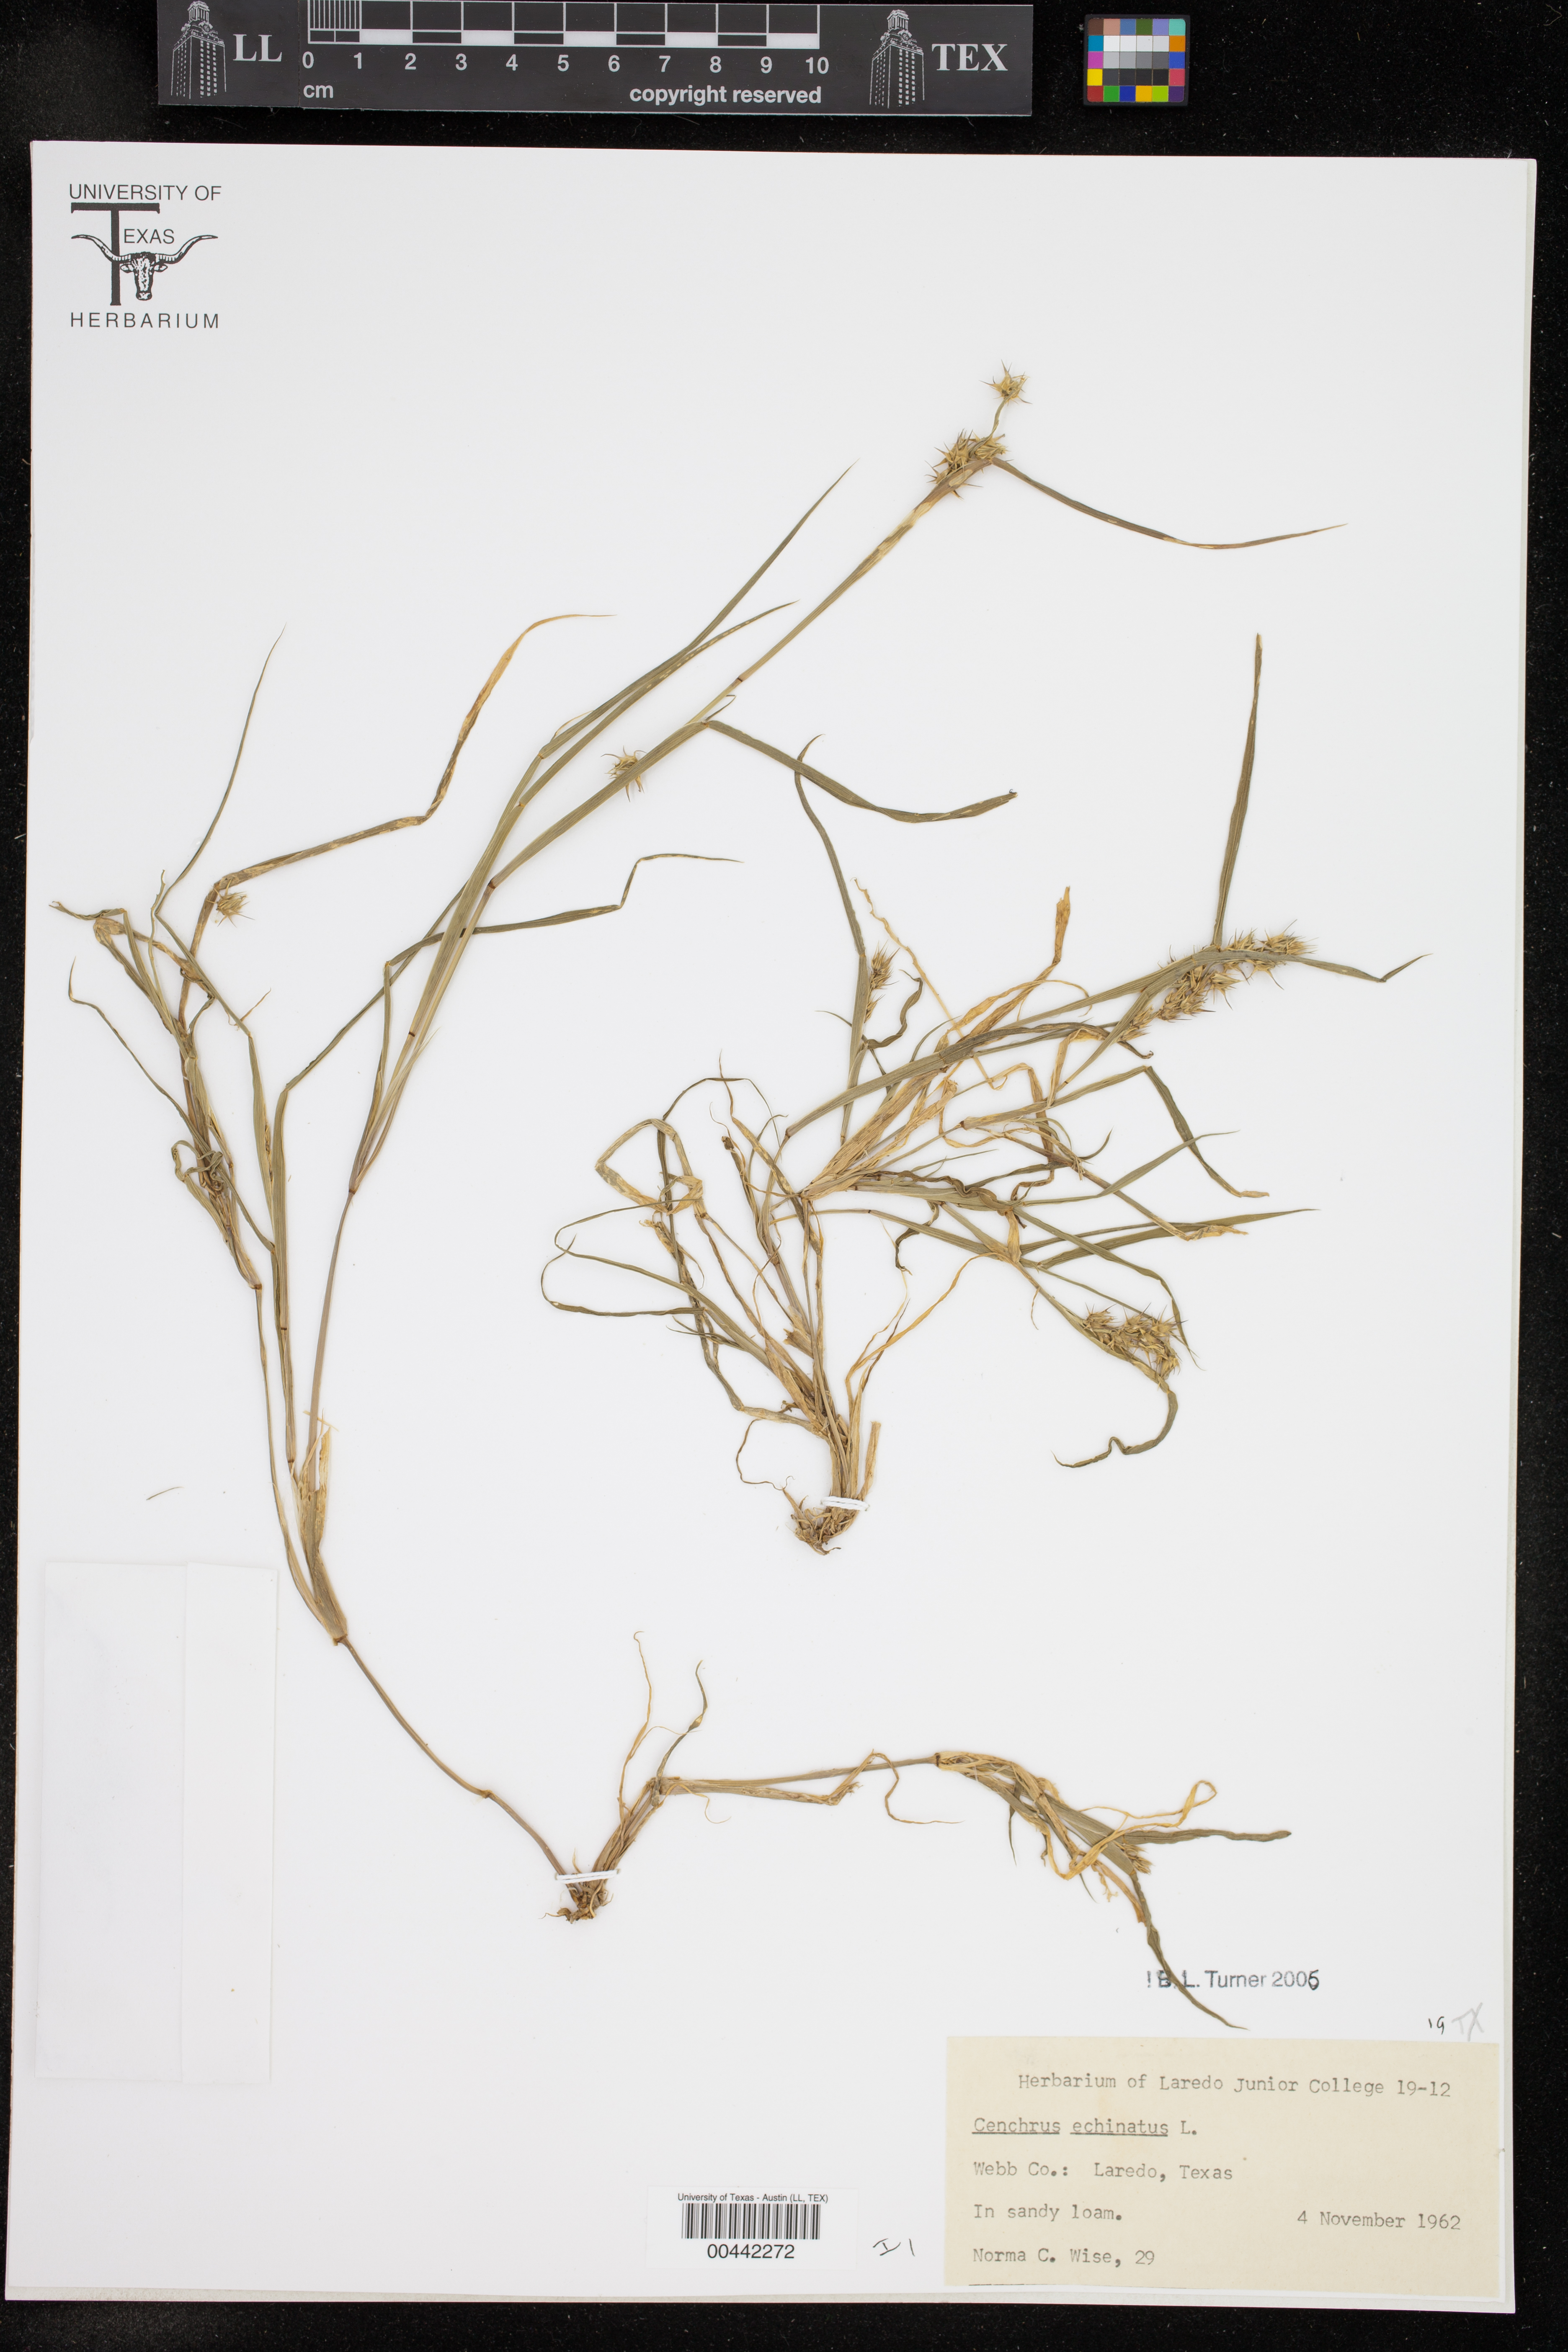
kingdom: Plantae
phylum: Tracheophyta
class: Liliopsida
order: Poales
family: Poaceae
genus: Cenchrus
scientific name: Cenchrus echinatus
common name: Southern sandbur
